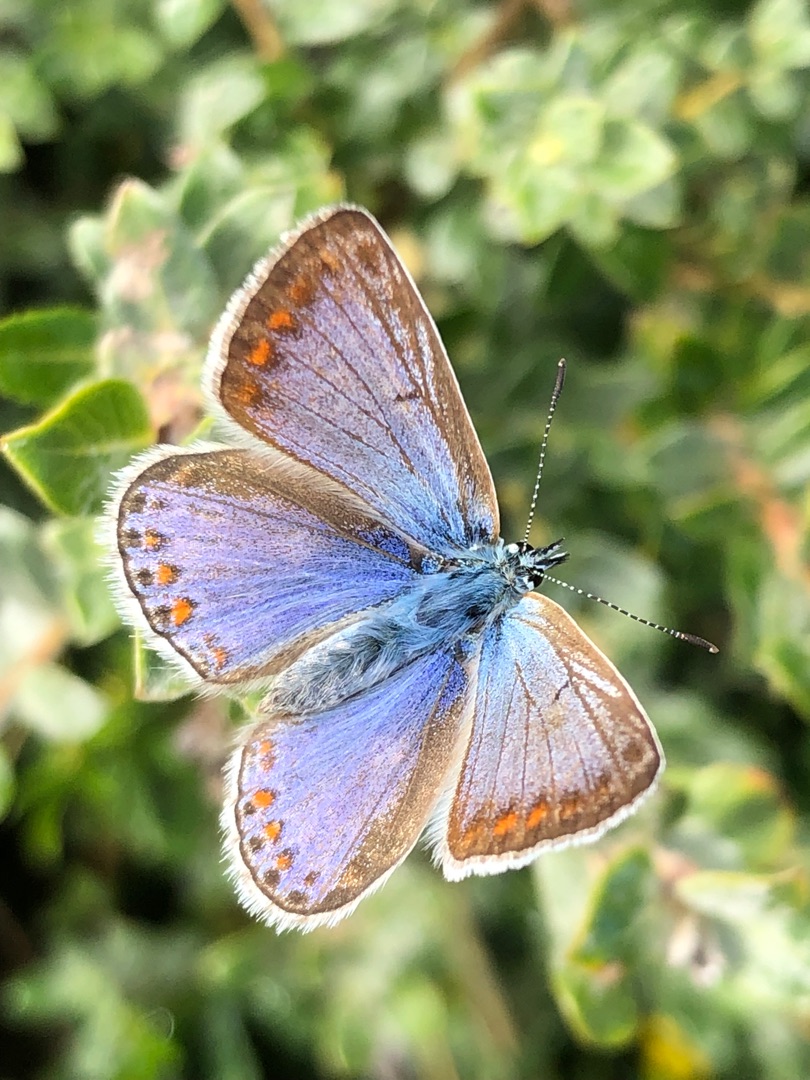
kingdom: Animalia
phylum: Arthropoda
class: Insecta
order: Lepidoptera
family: Lycaenidae
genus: Polyommatus
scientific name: Polyommatus icarus
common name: Almindelig blåfugl
